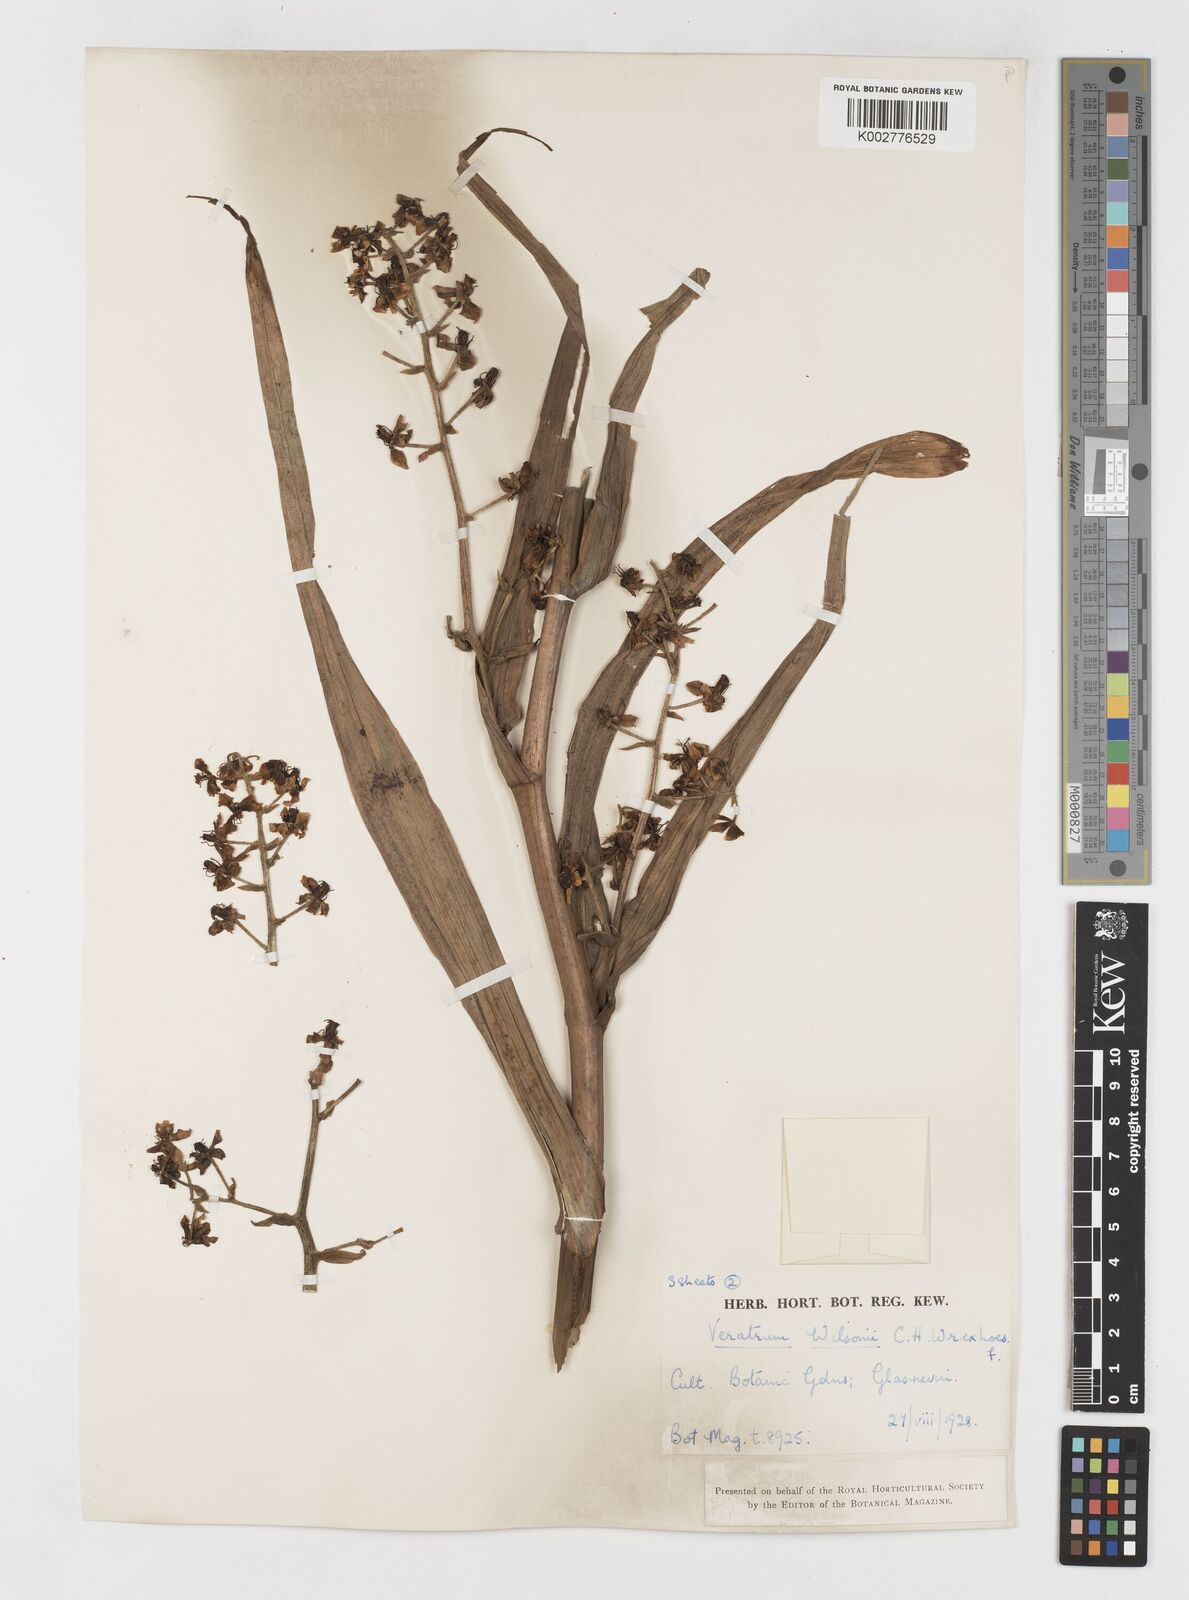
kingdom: Plantae
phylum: Tracheophyta
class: Liliopsida
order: Liliales
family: Melanthiaceae
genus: Veratrum
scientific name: Veratrum mengtzeanum
